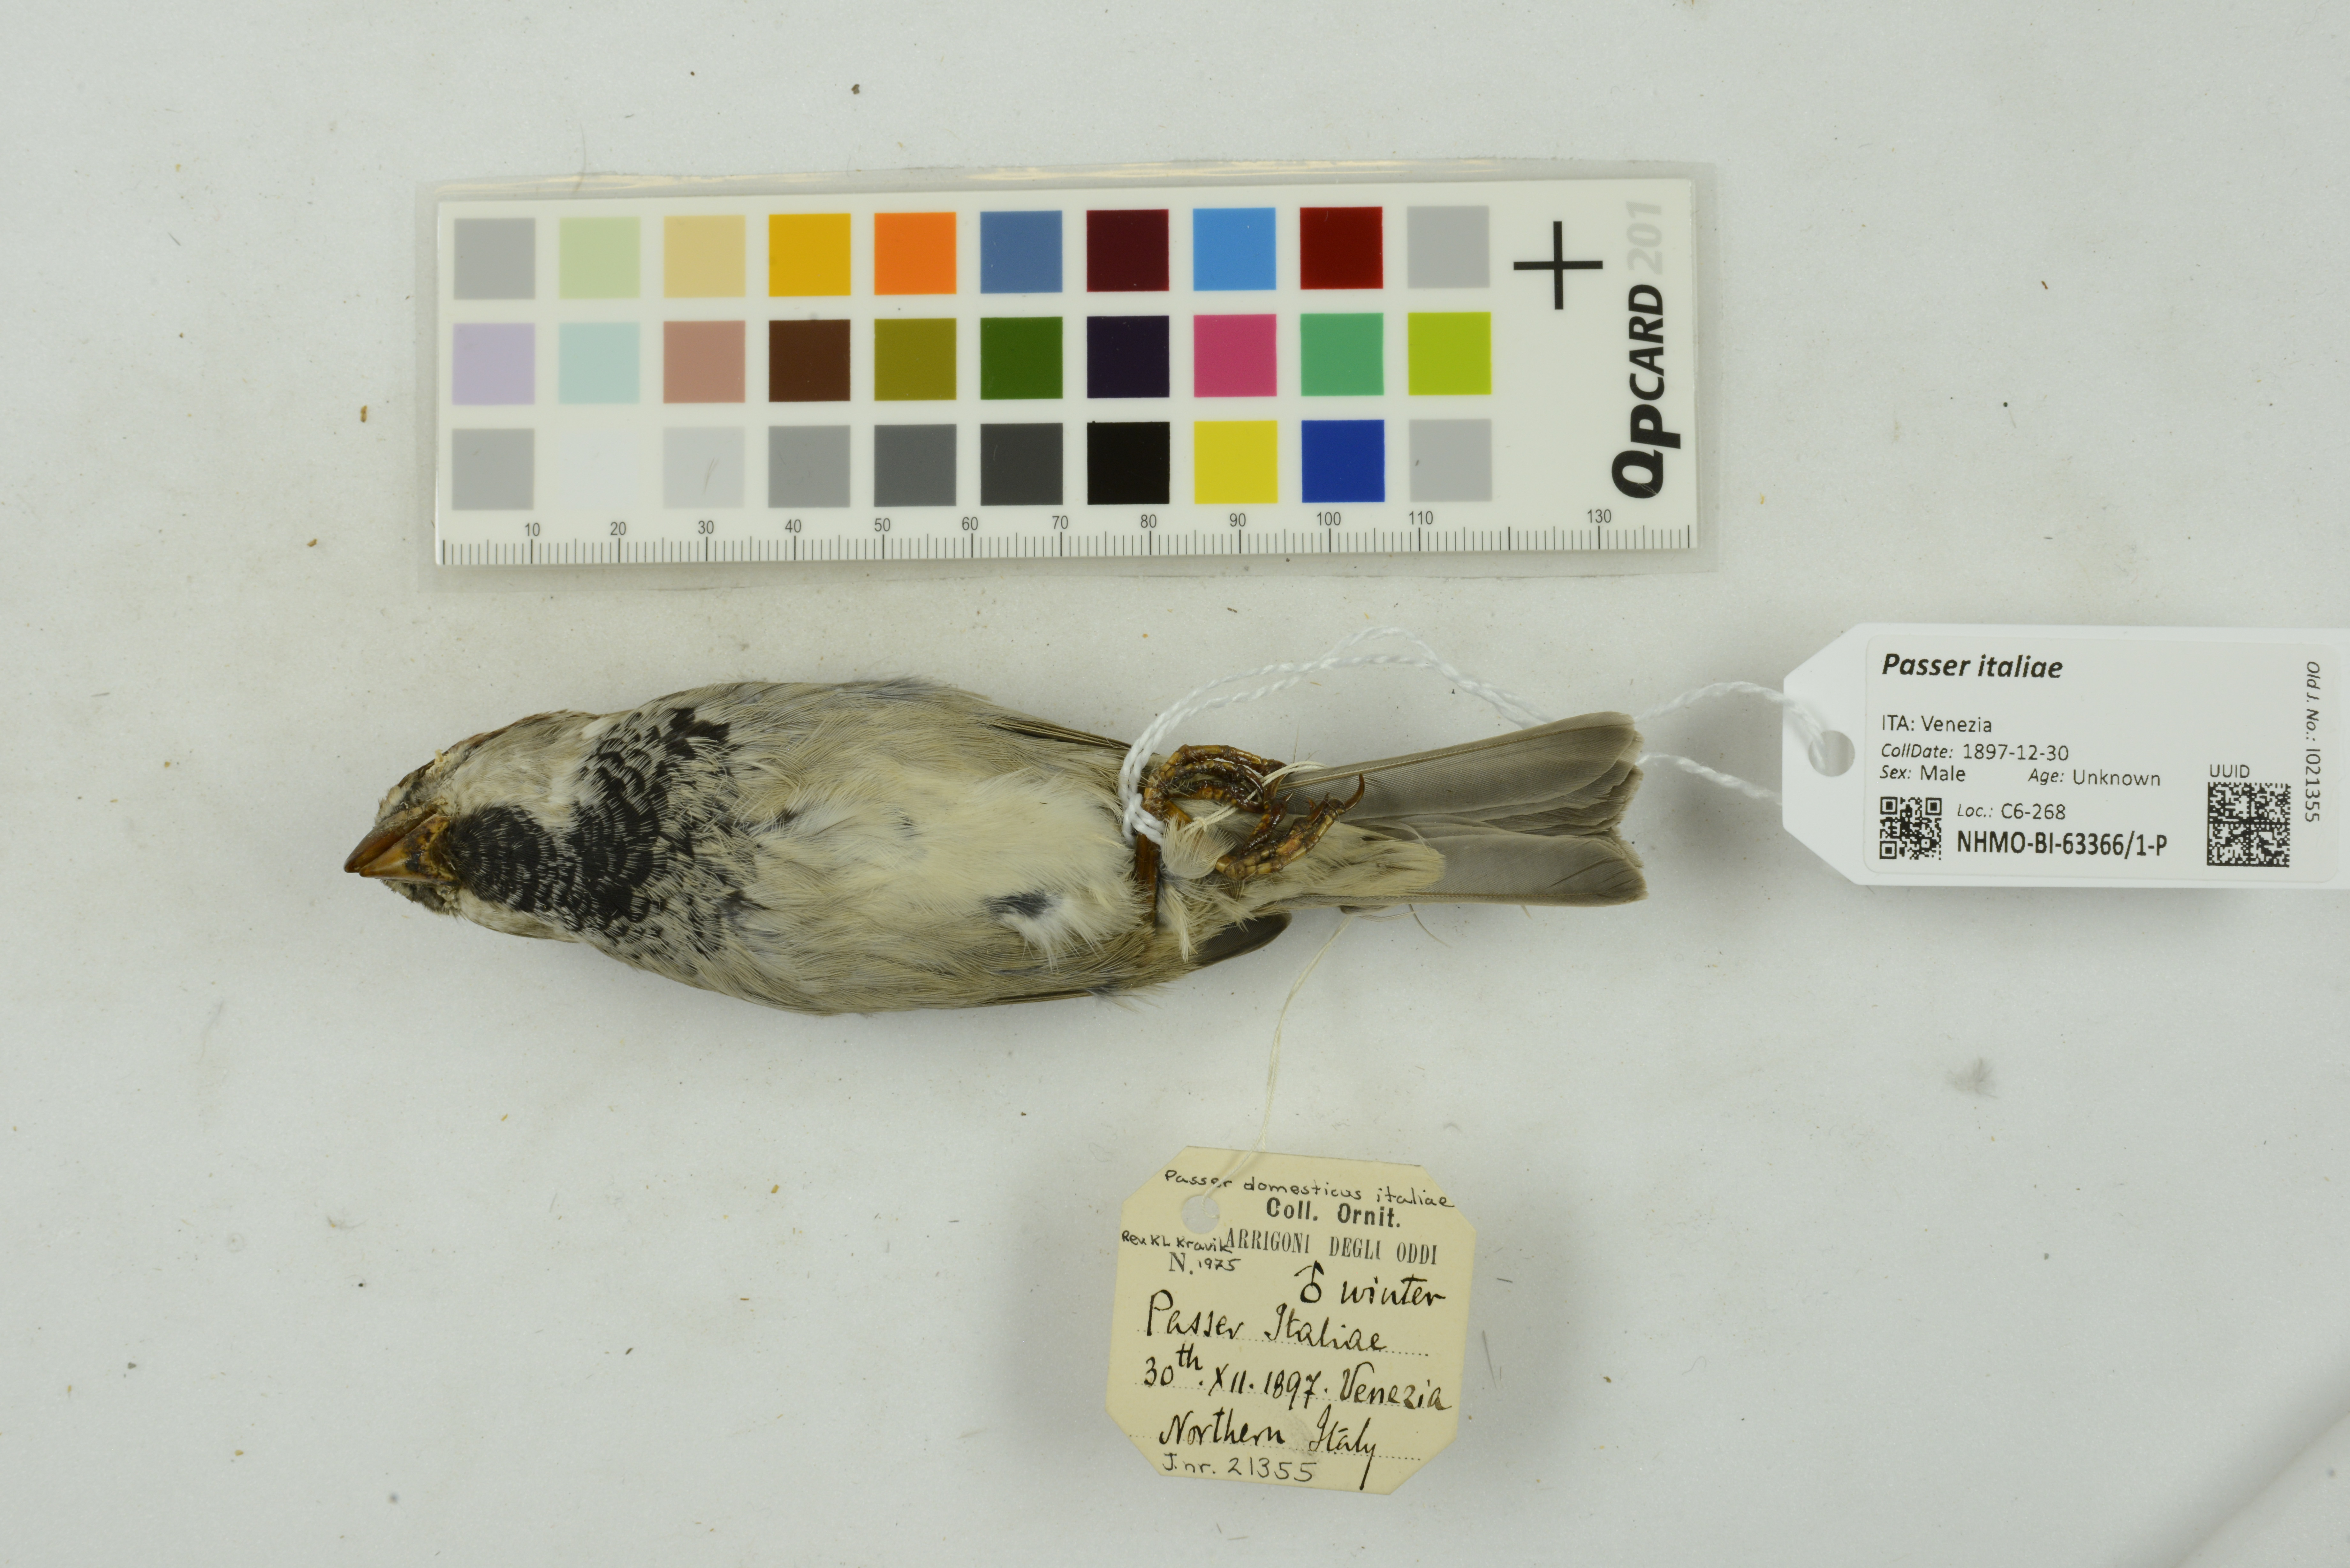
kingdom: Animalia
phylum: Chordata
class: Aves
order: Passeriformes
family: Passeridae
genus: Passer
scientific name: Passer italiae
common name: Italian sparrow
